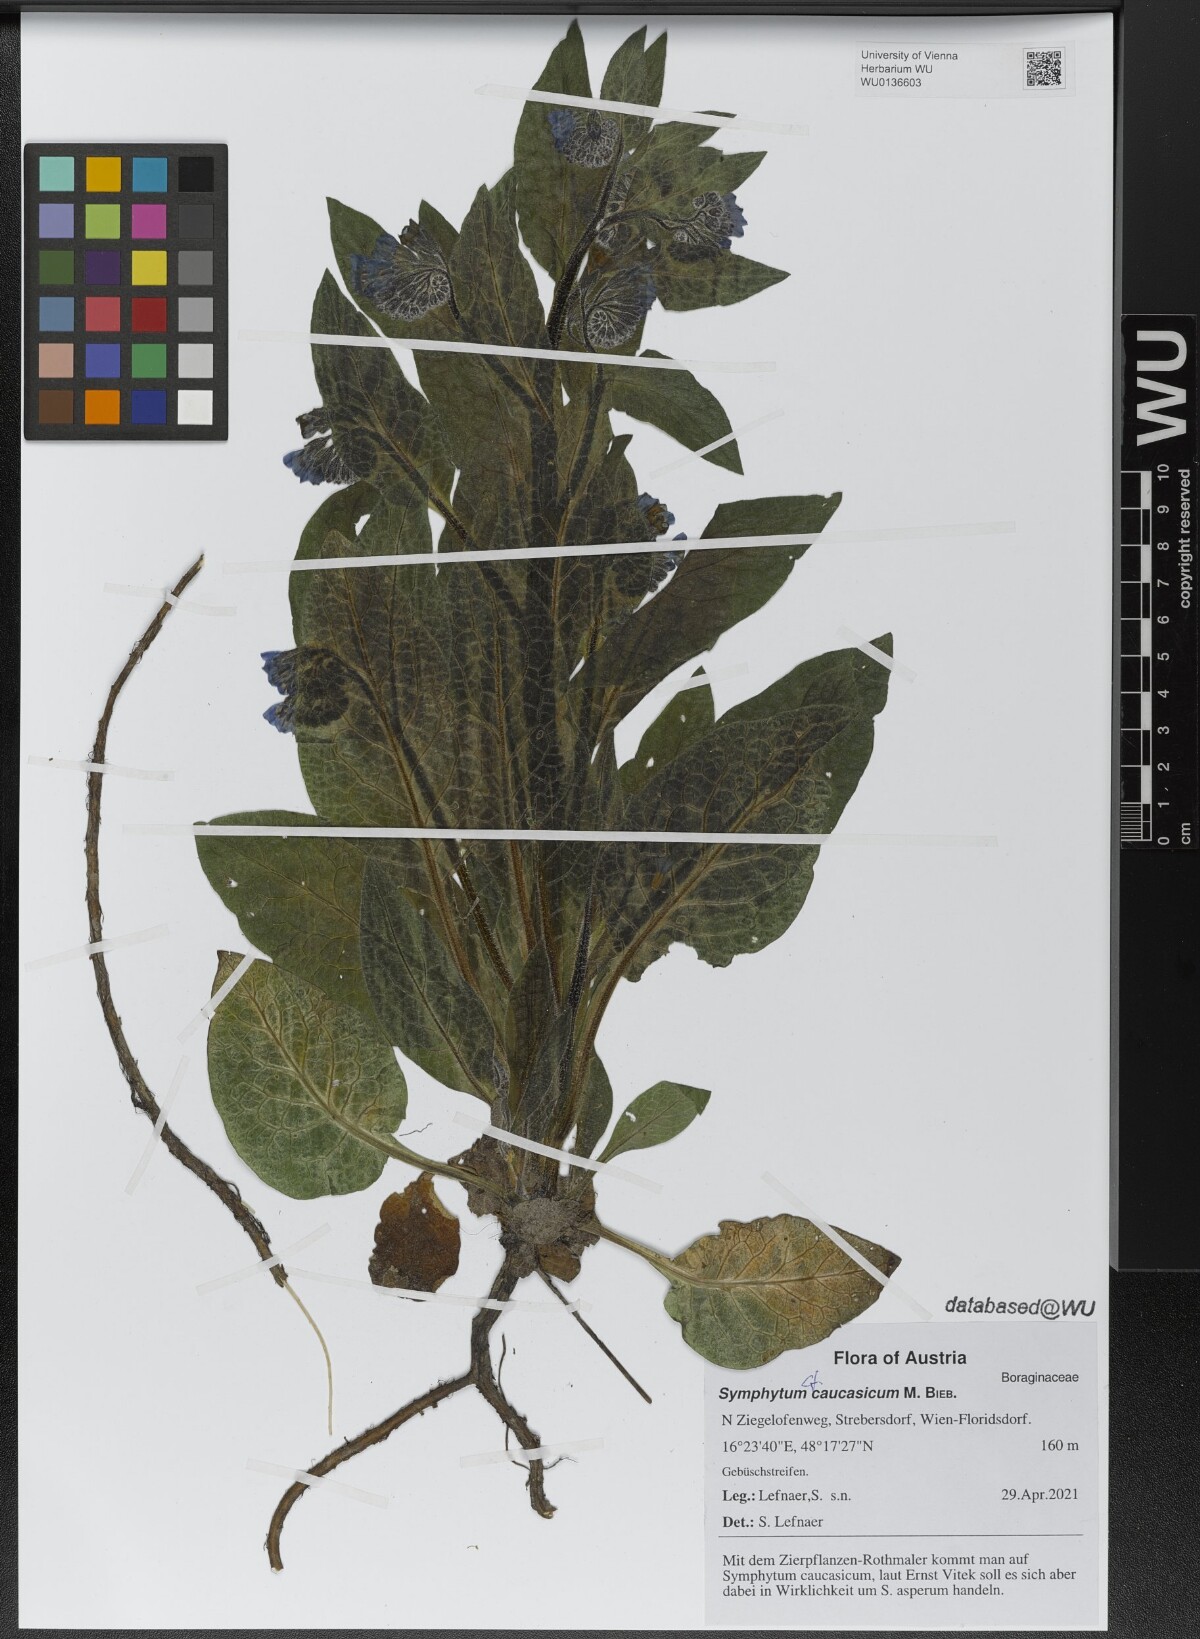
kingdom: Plantae
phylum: Tracheophyta
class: Magnoliopsida
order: Boraginales
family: Boraginaceae
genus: Symphytum
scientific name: Symphytum caucasicum
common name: Caucasian comfrey
